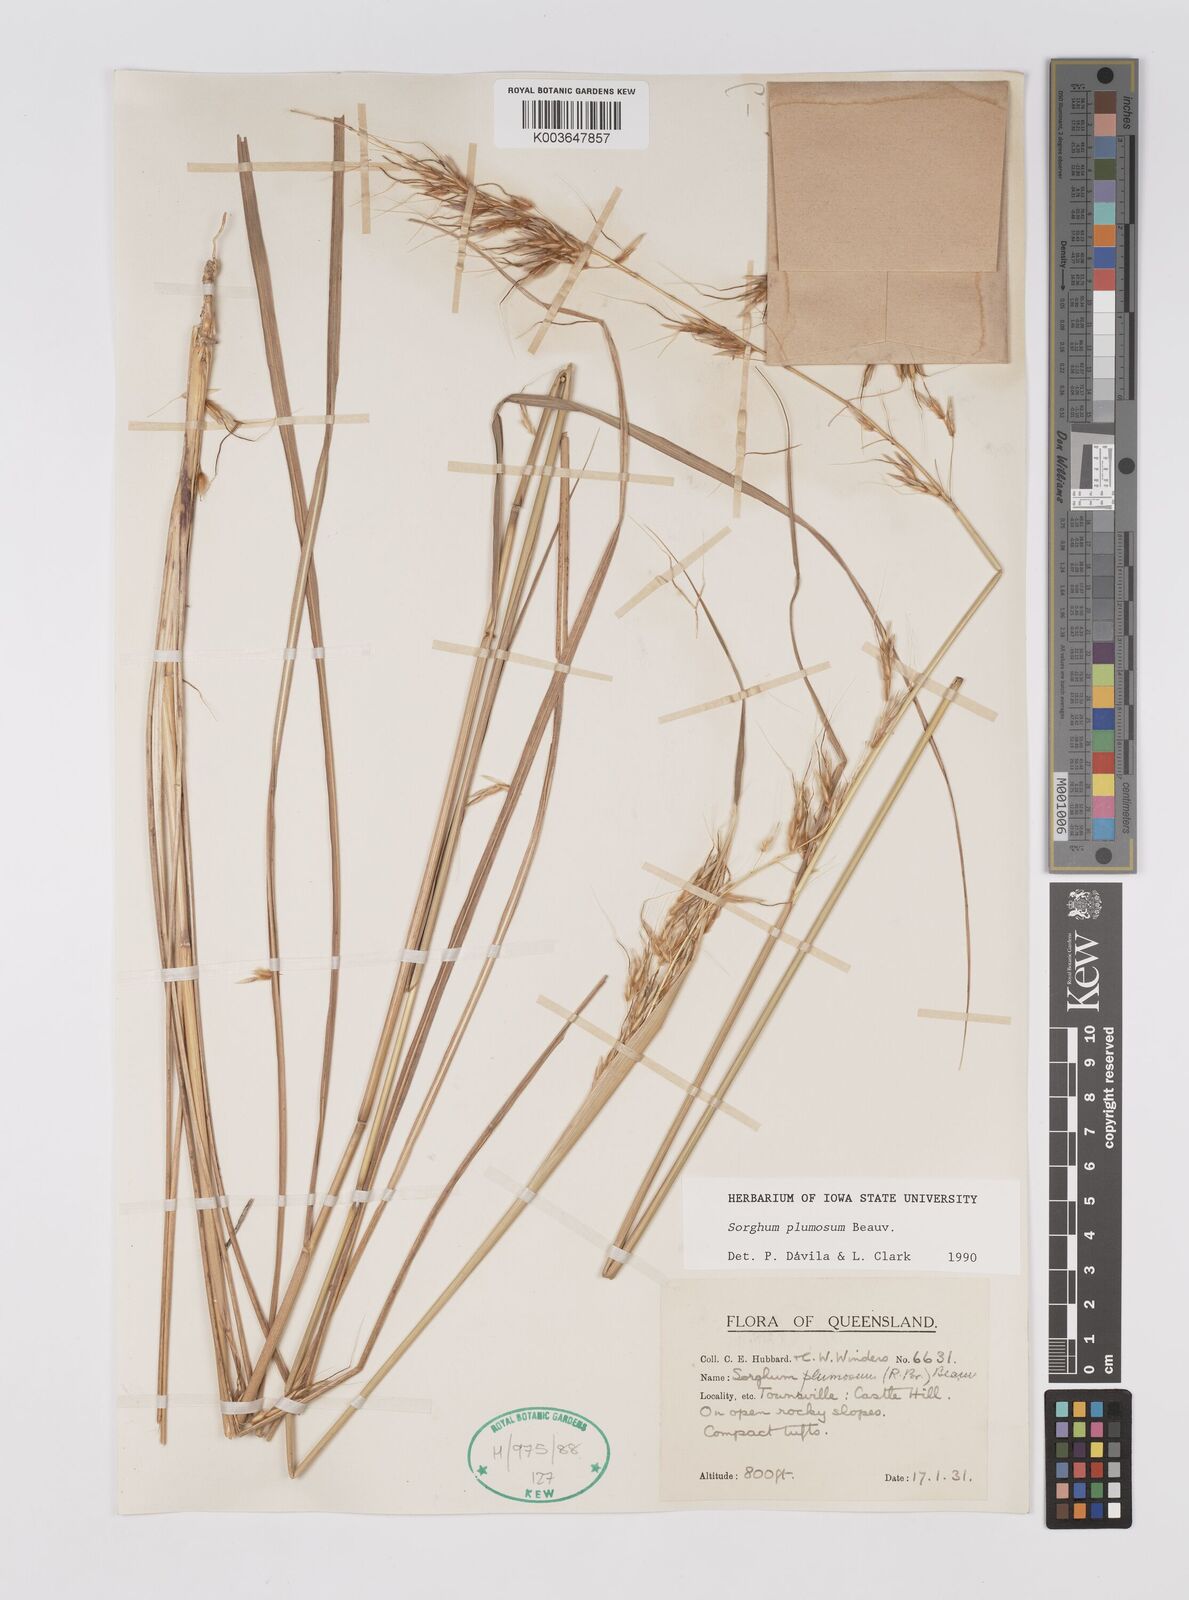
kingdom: Plantae
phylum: Tracheophyta
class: Liliopsida
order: Poales
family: Poaceae
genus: Sarga
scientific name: Sarga plumosa
